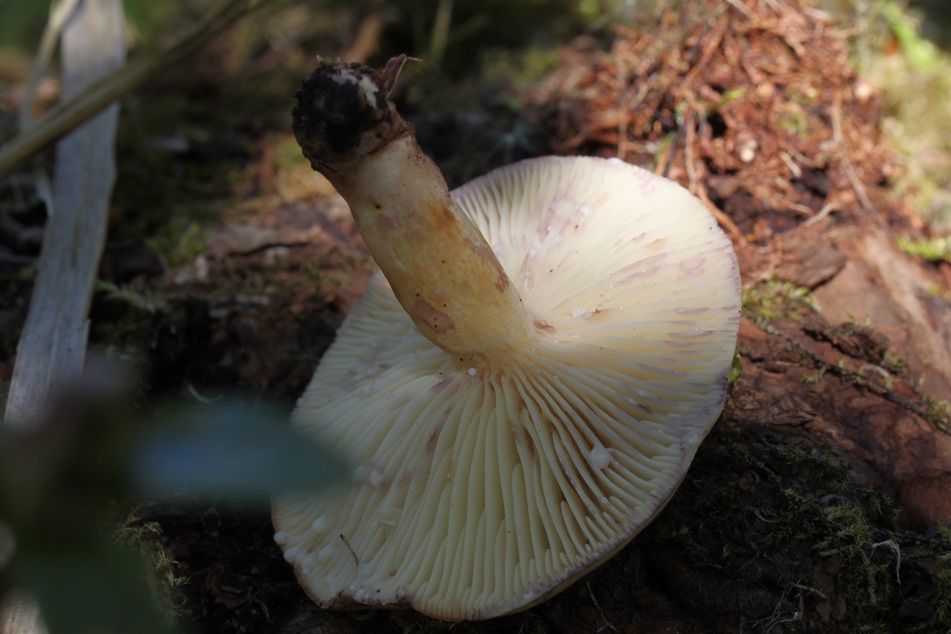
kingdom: Fungi
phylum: Basidiomycota
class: Agaricomycetes
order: Russulales
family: Russulaceae
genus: Lactarius
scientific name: Lactarius aspideus
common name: pile-mælkehat
